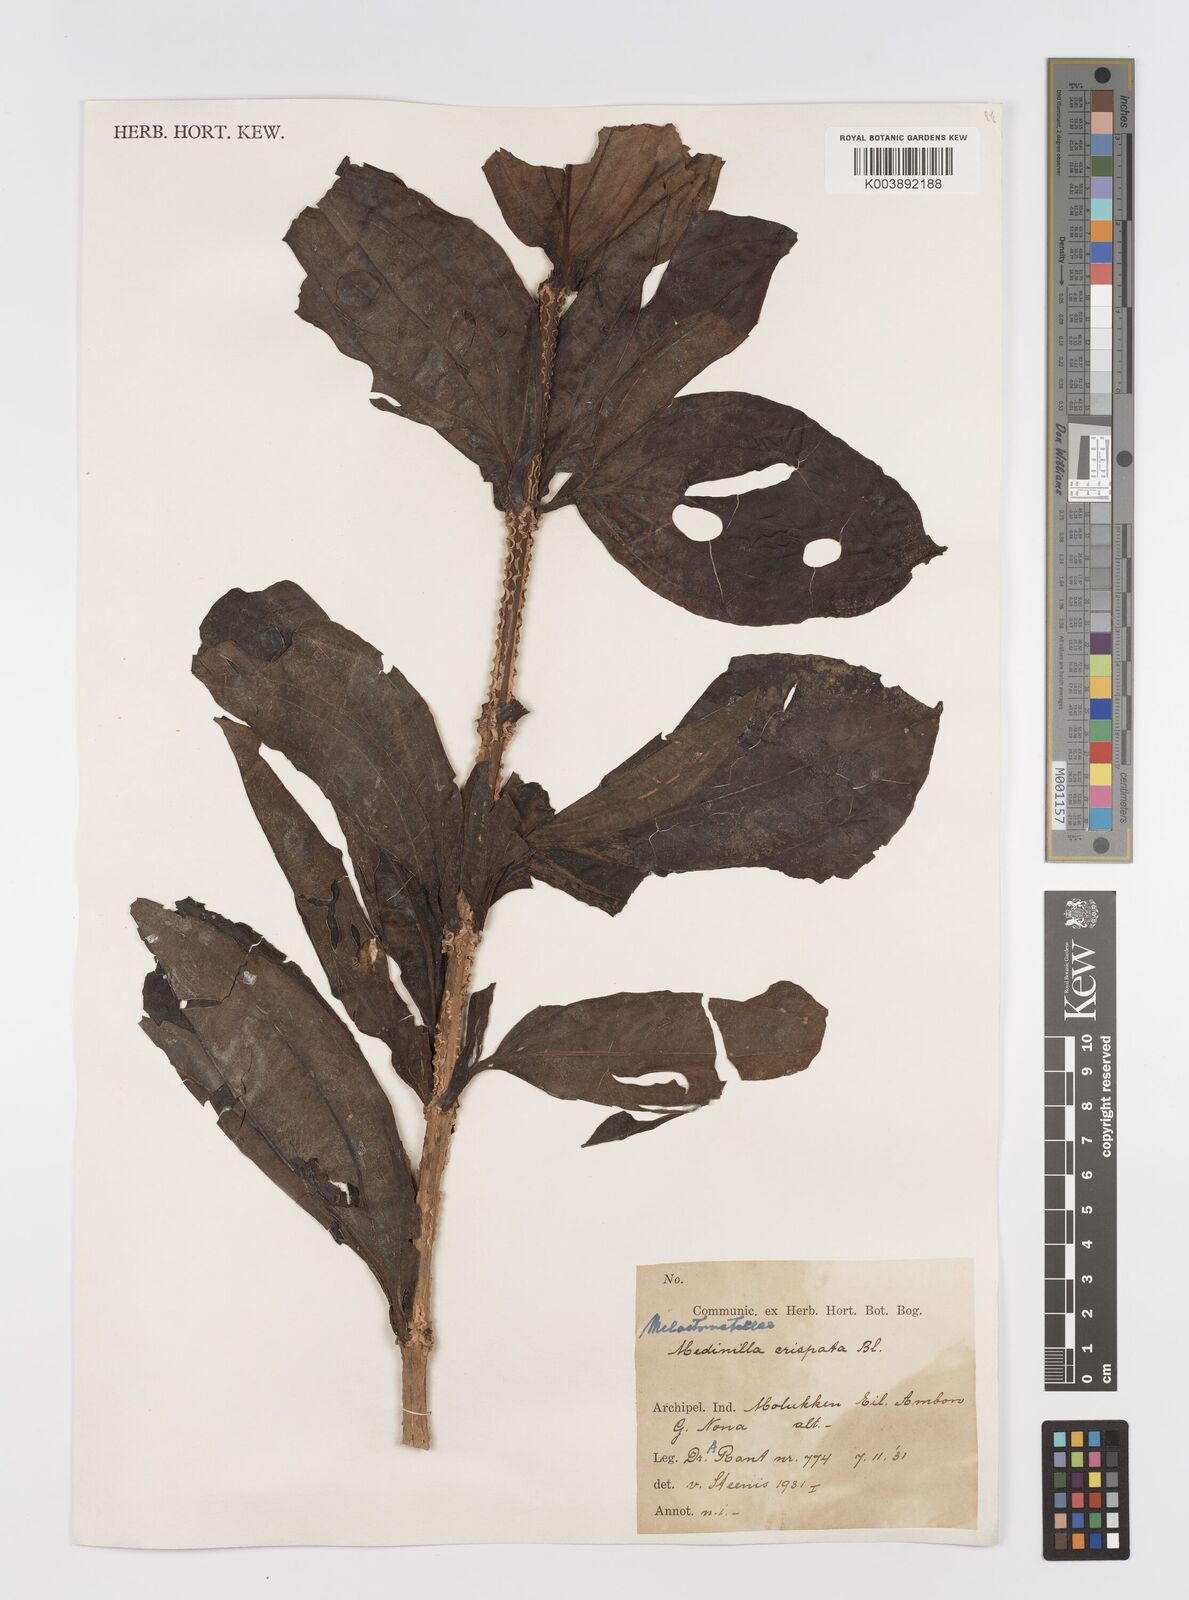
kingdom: Plantae
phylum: Tracheophyta
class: Magnoliopsida
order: Myrtales
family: Melastomataceae
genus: Medinilla
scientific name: Medinilla crispata
